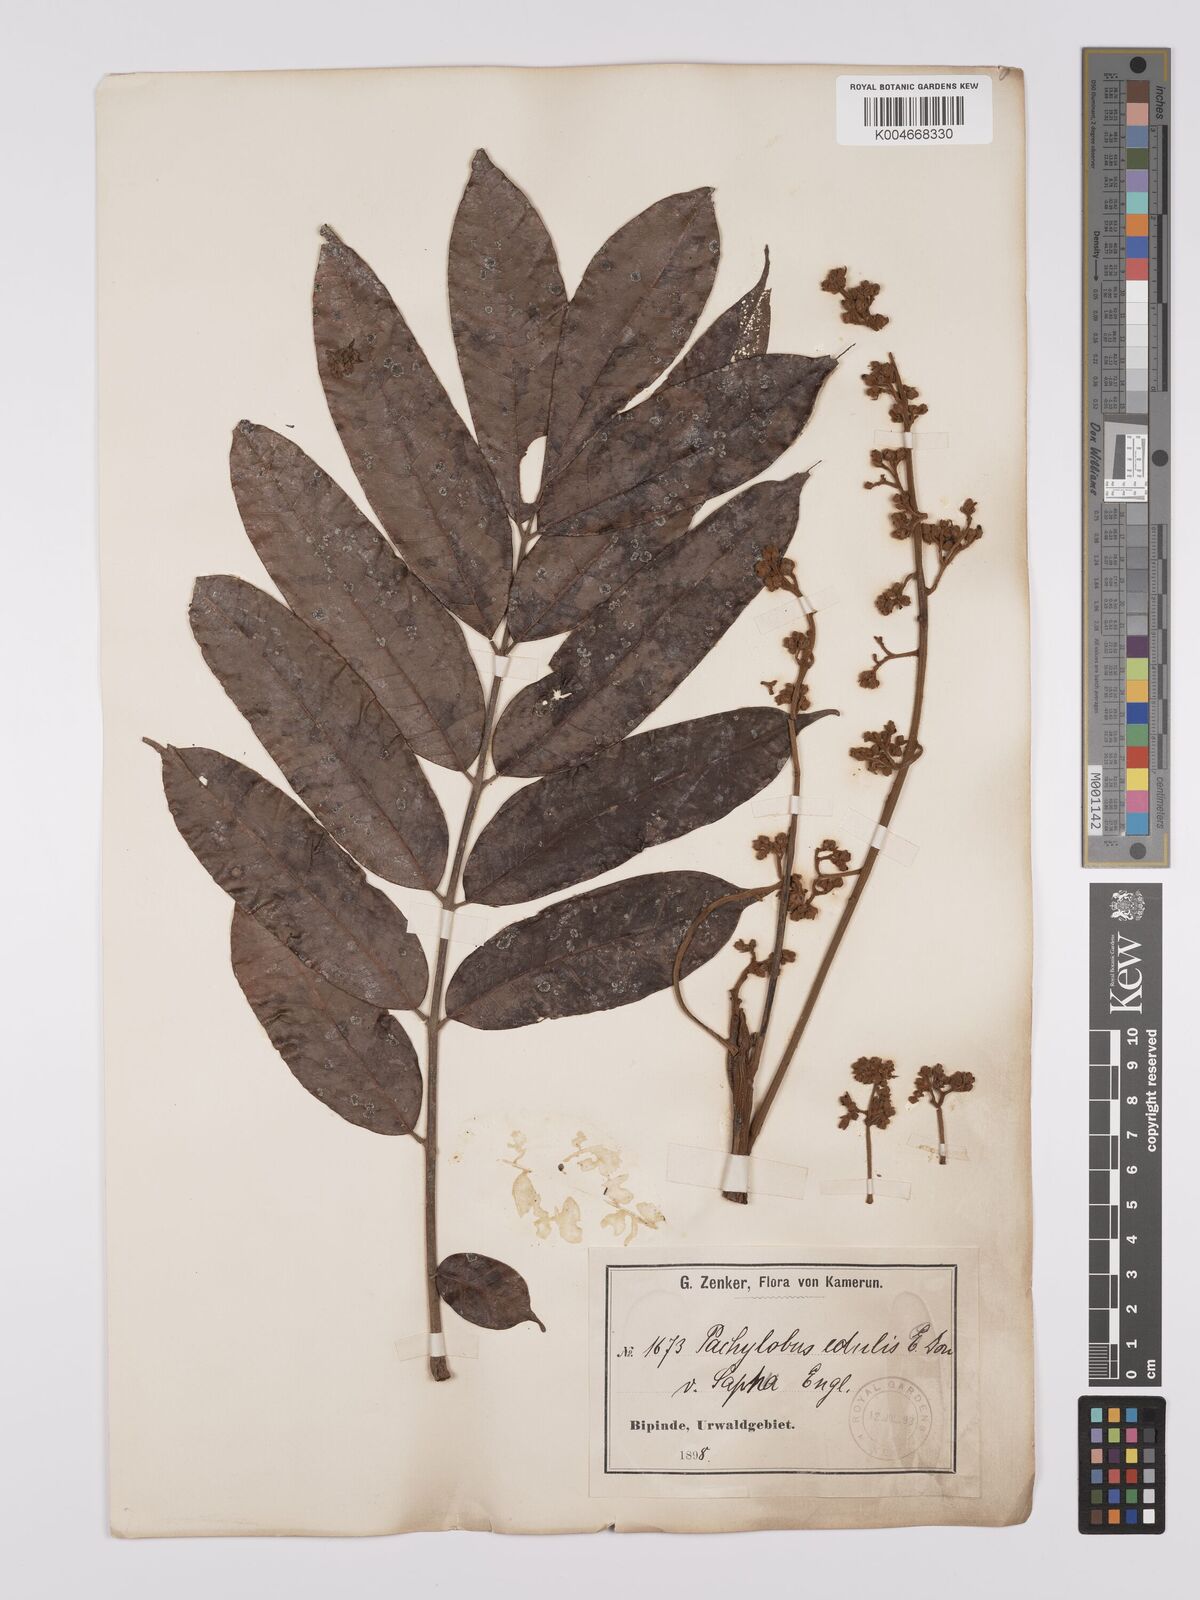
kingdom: Plantae
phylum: Tracheophyta
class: Magnoliopsida
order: Sapindales
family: Burseraceae
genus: Pachylobus
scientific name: Pachylobus edulis
